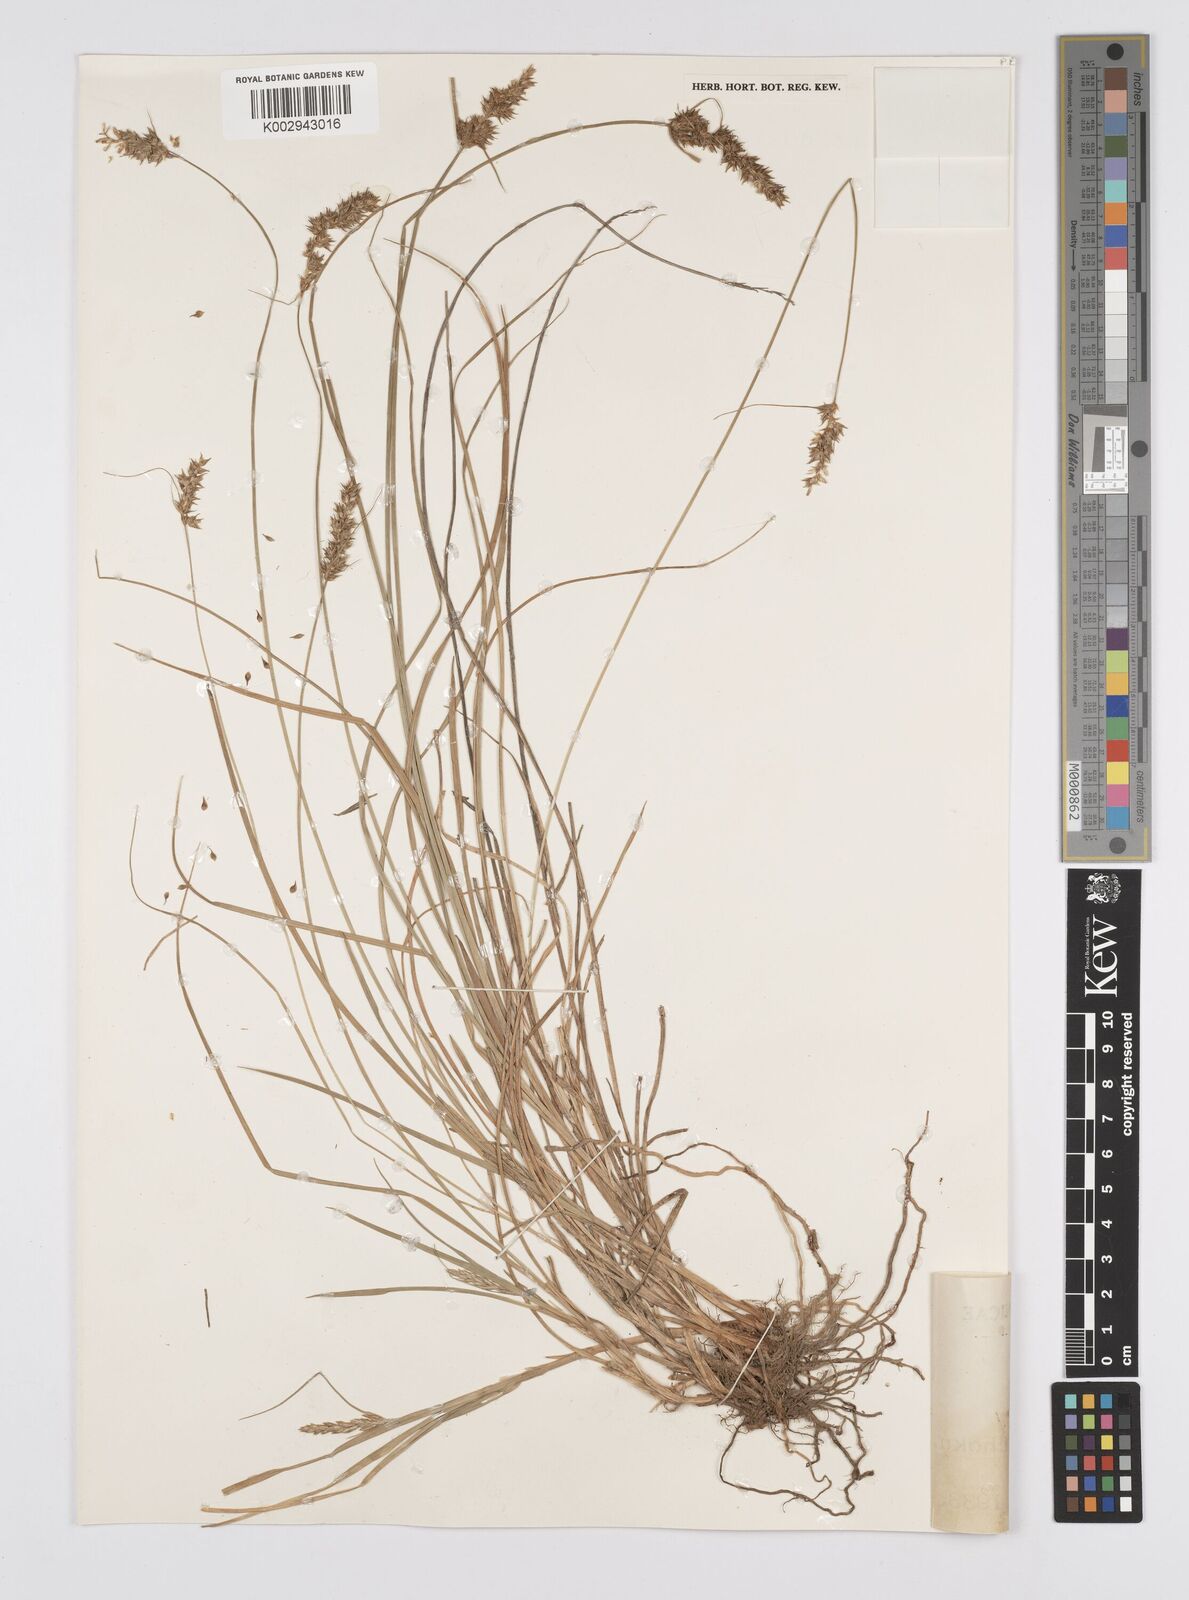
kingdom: Plantae
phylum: Tracheophyta
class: Liliopsida
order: Poales
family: Cyperaceae
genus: Carex
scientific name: Carex nubigena
